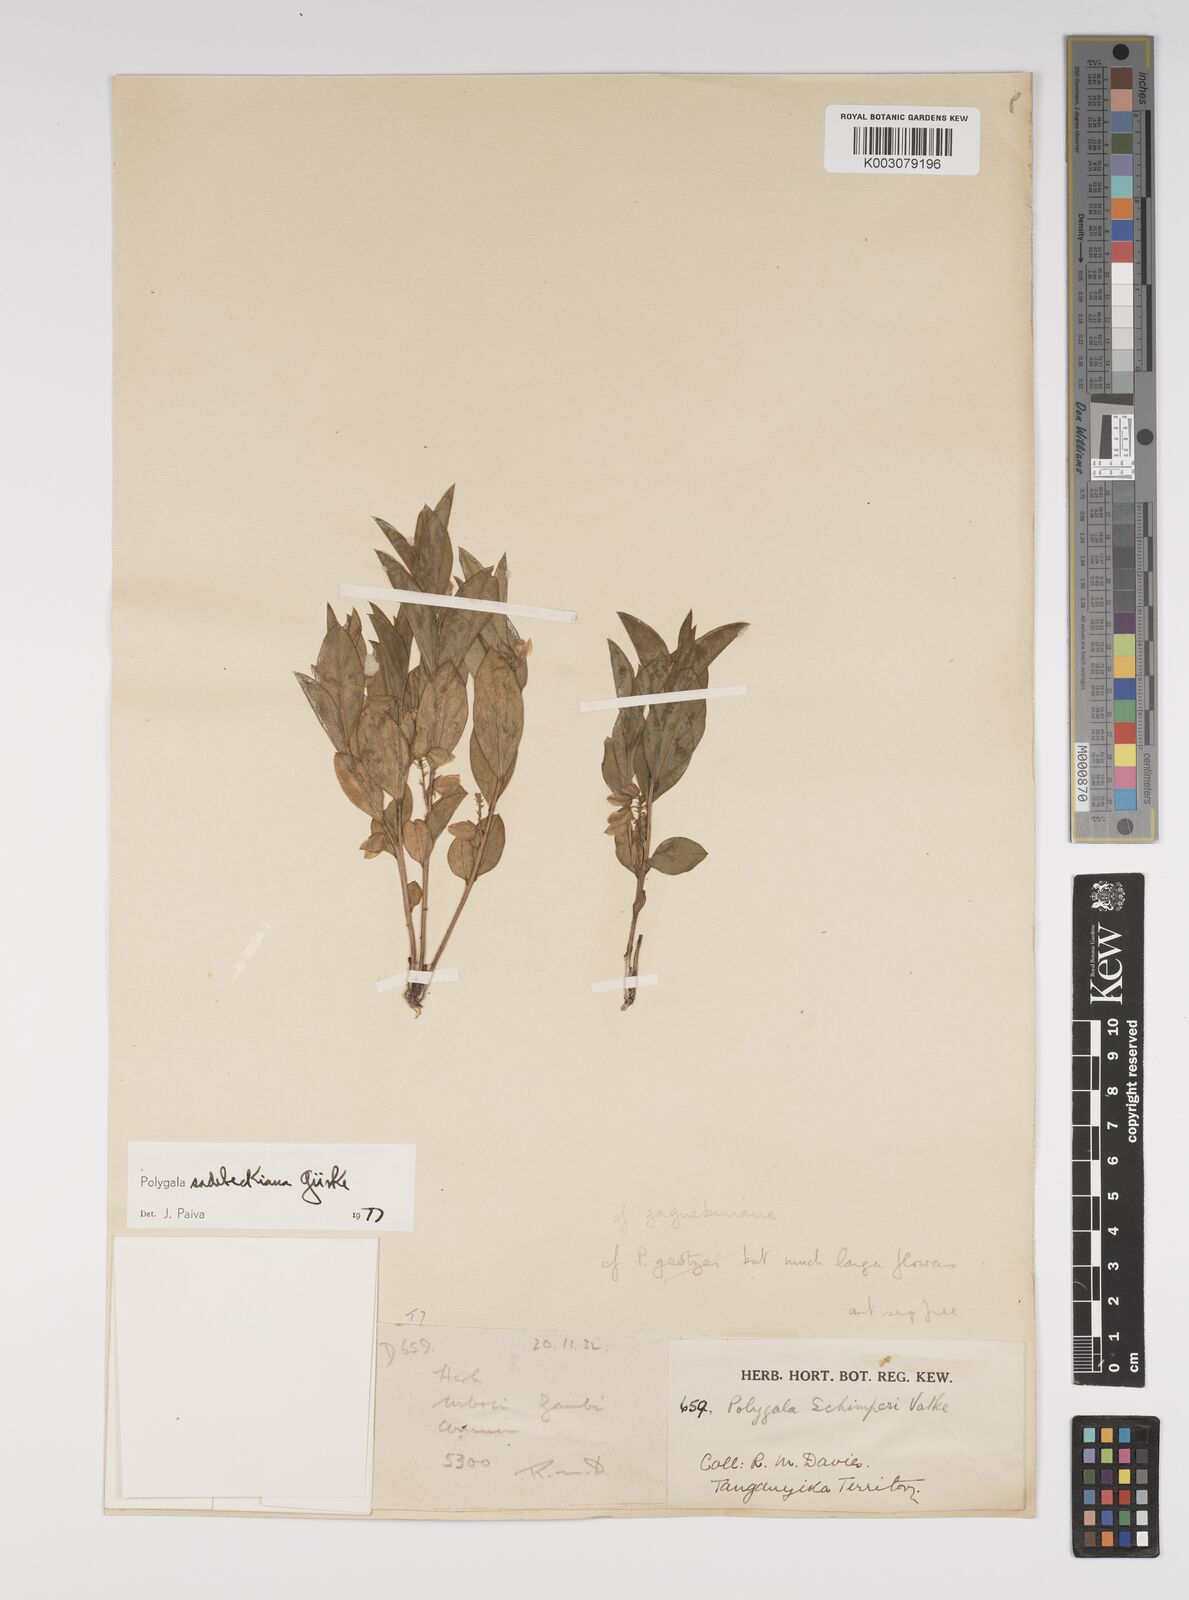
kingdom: Plantae
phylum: Tracheophyta
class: Magnoliopsida
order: Fabales
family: Polygalaceae
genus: Polygala
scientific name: Polygala sadebeckiana
